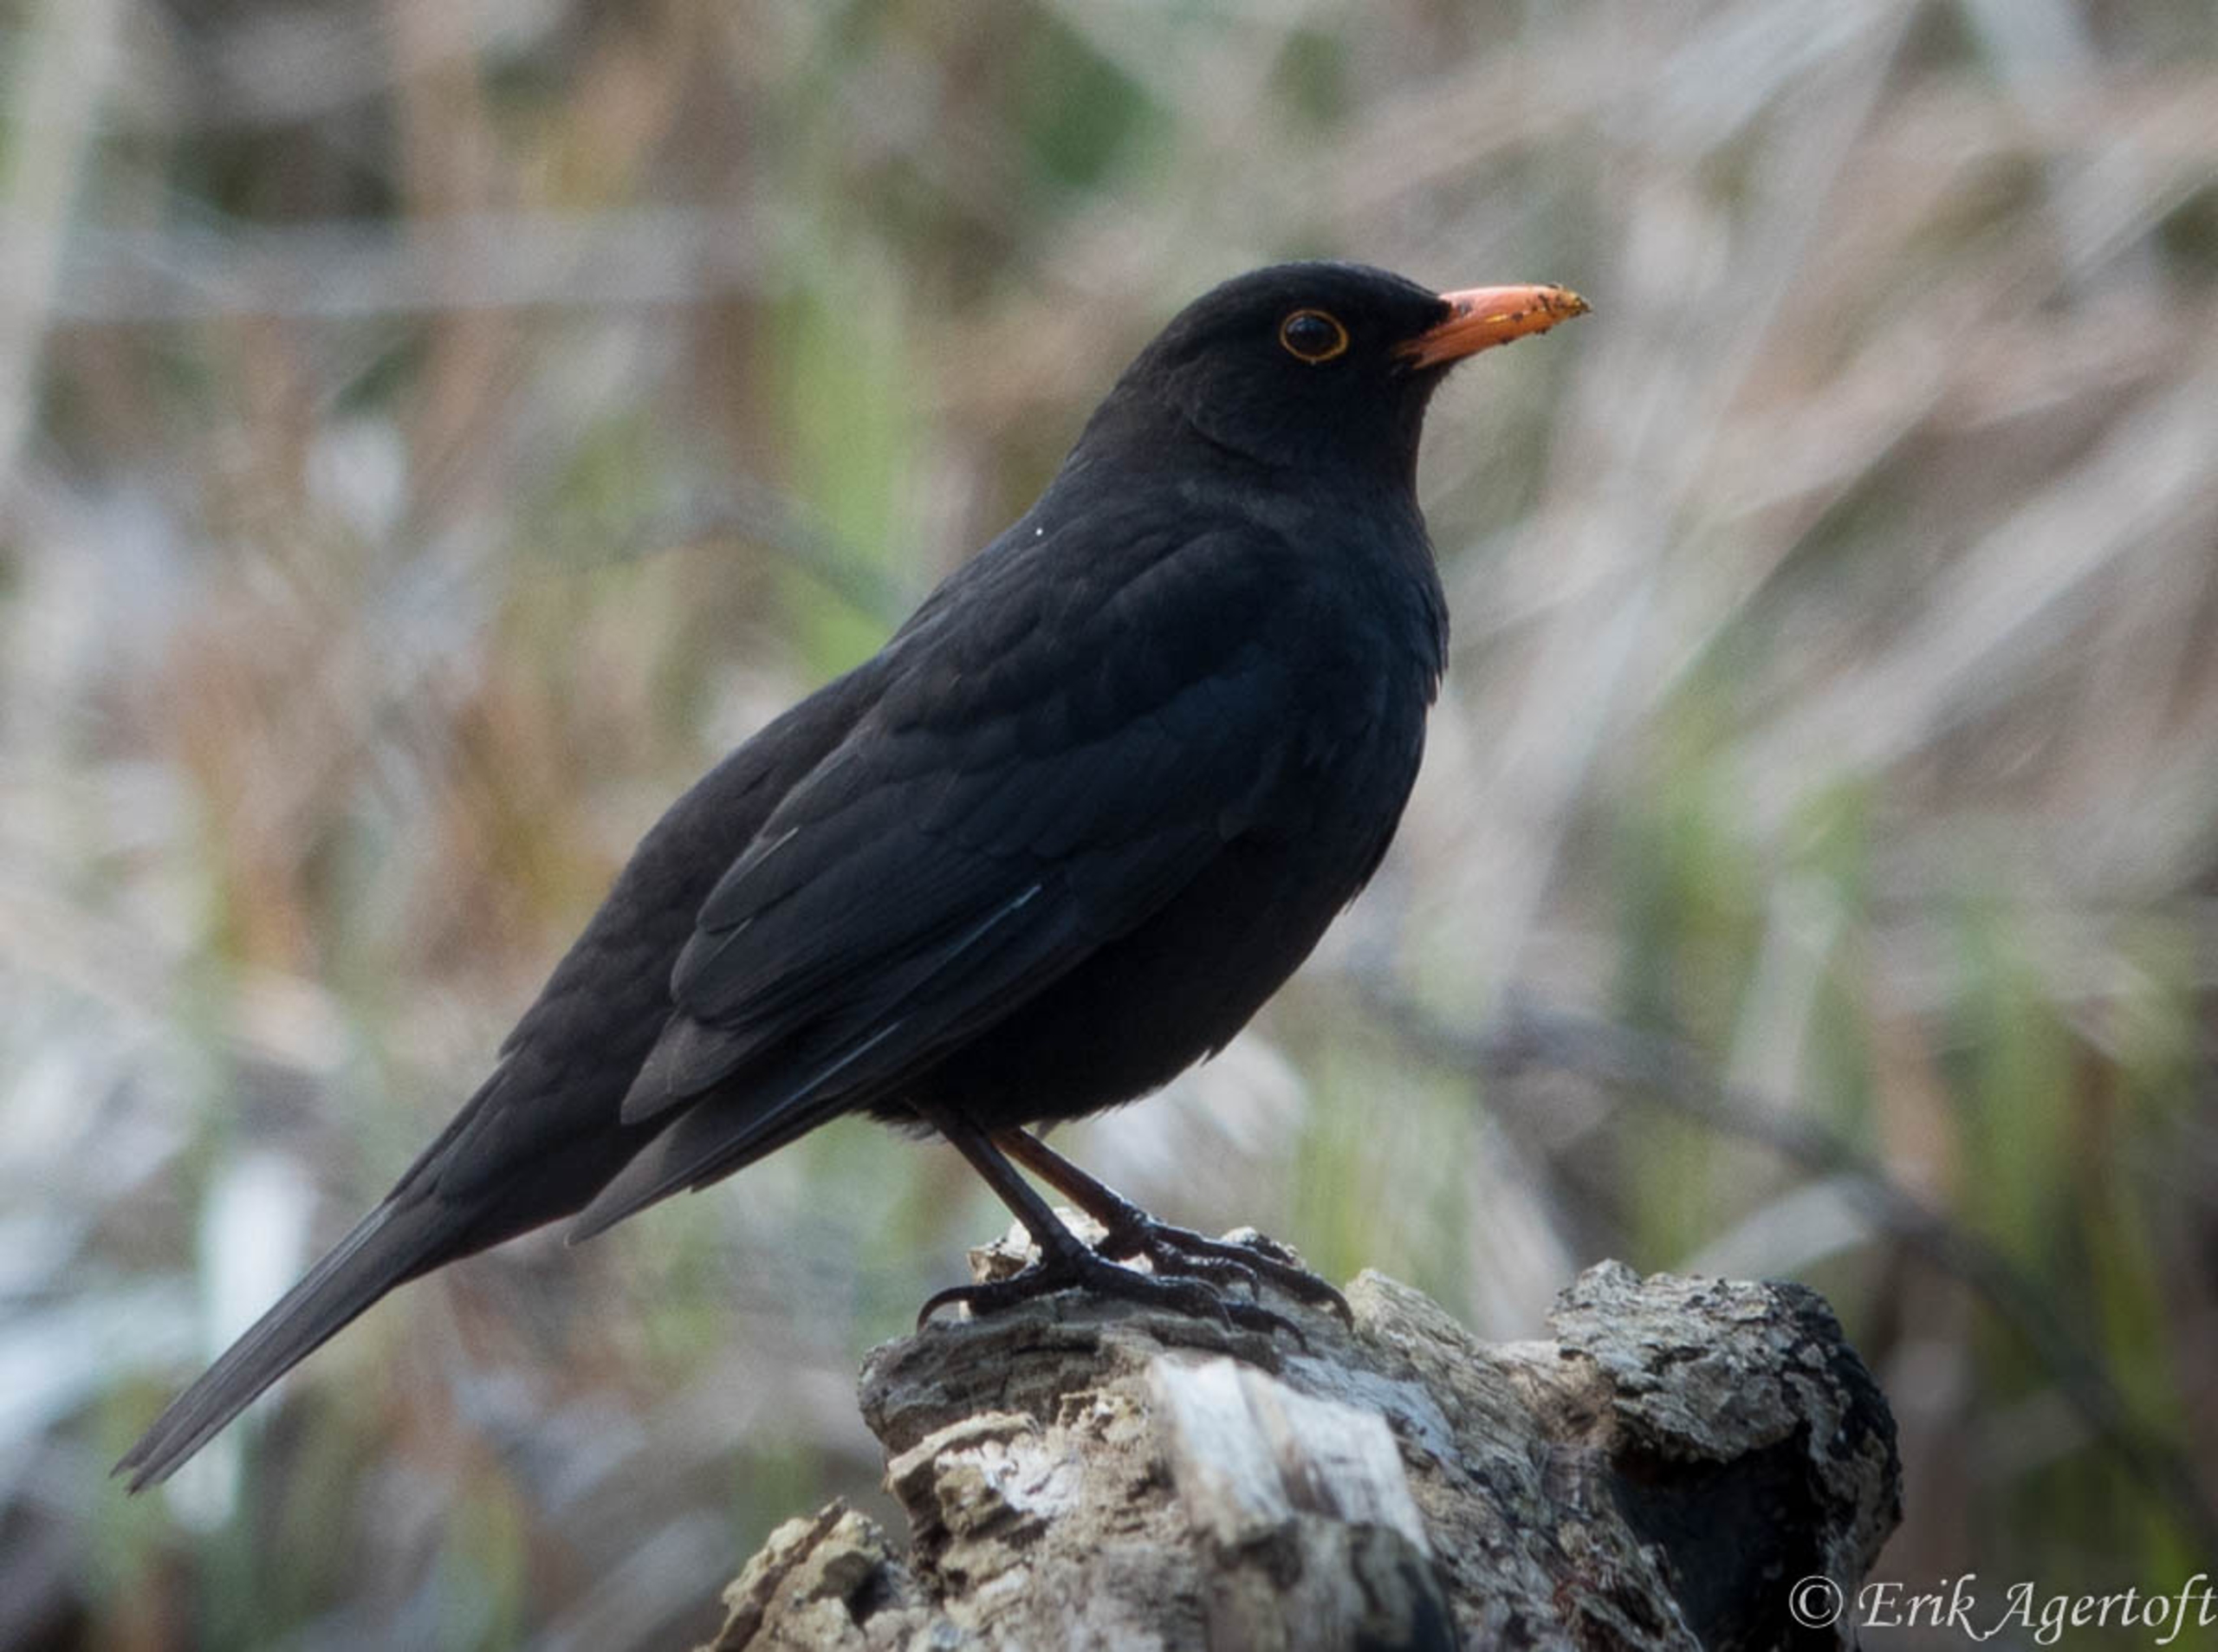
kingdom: Animalia
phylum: Chordata
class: Aves
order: Passeriformes
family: Turdidae
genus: Turdus
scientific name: Turdus merula
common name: Solsort
